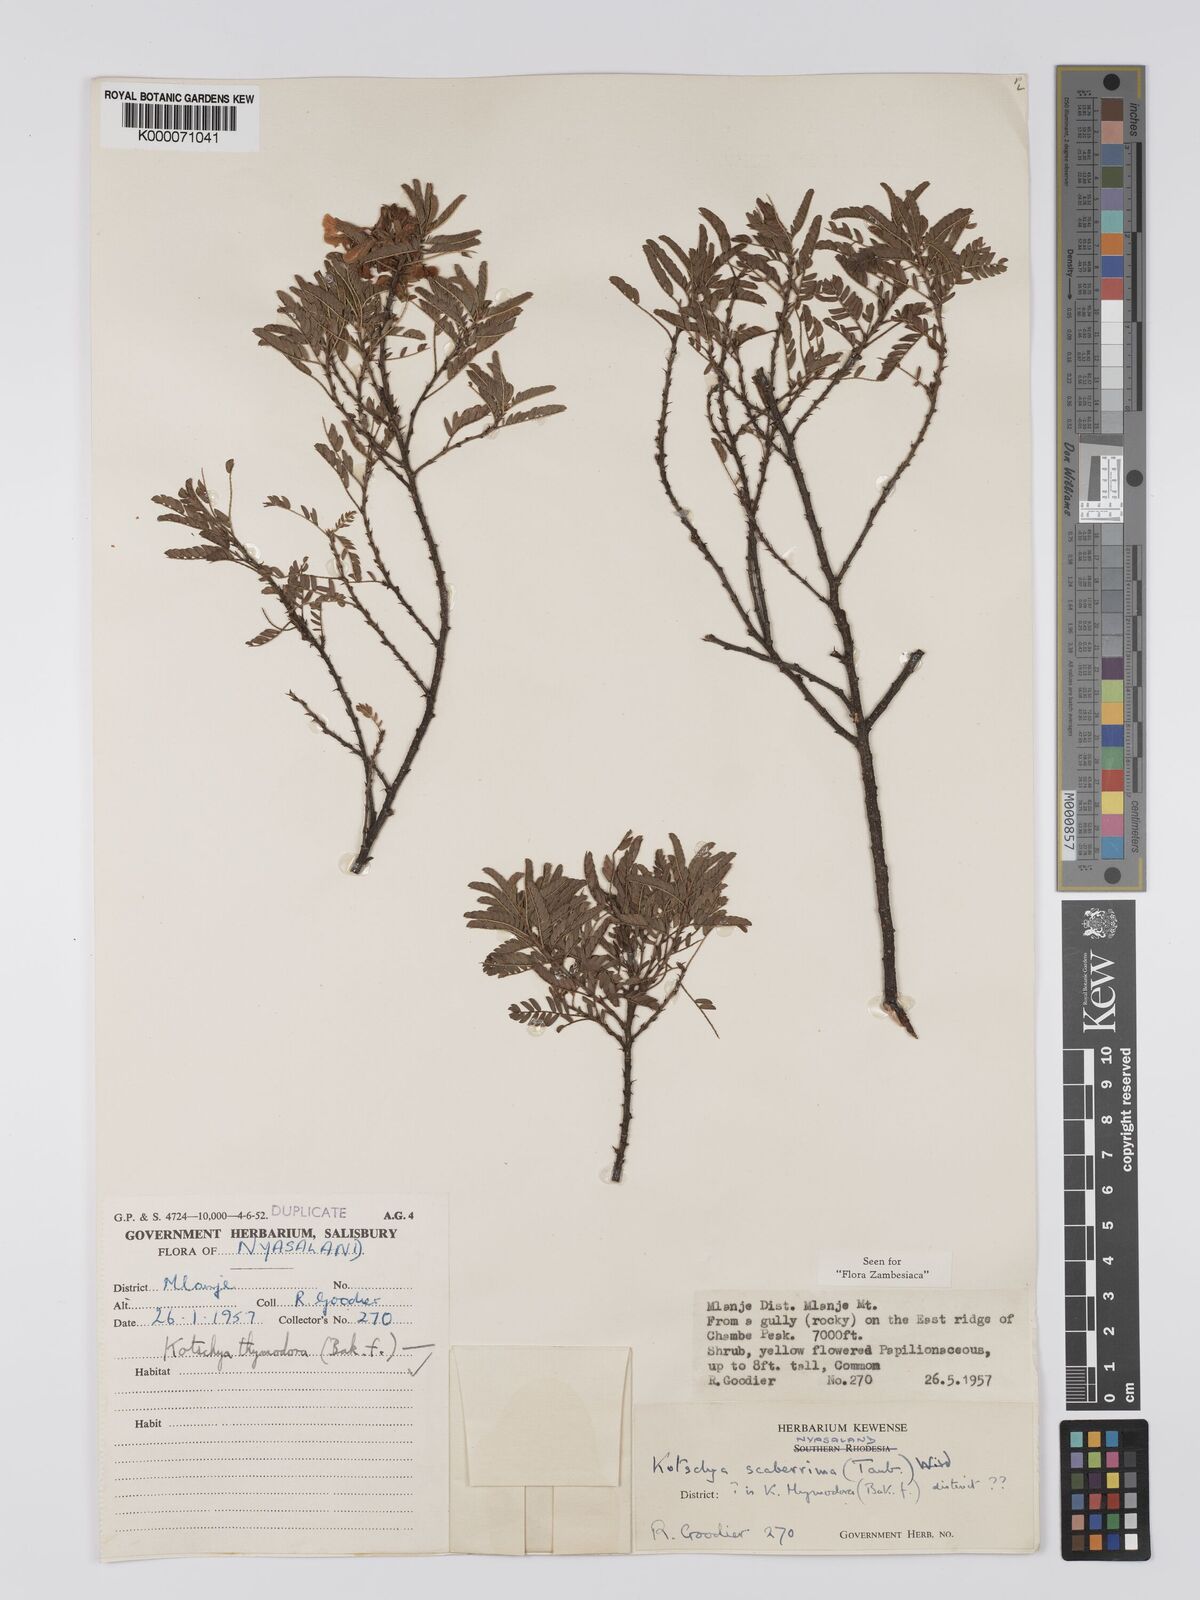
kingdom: Plantae
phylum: Tracheophyta
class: Magnoliopsida
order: Fabales
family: Fabaceae
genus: Kotschya
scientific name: Kotschya scaberrima
